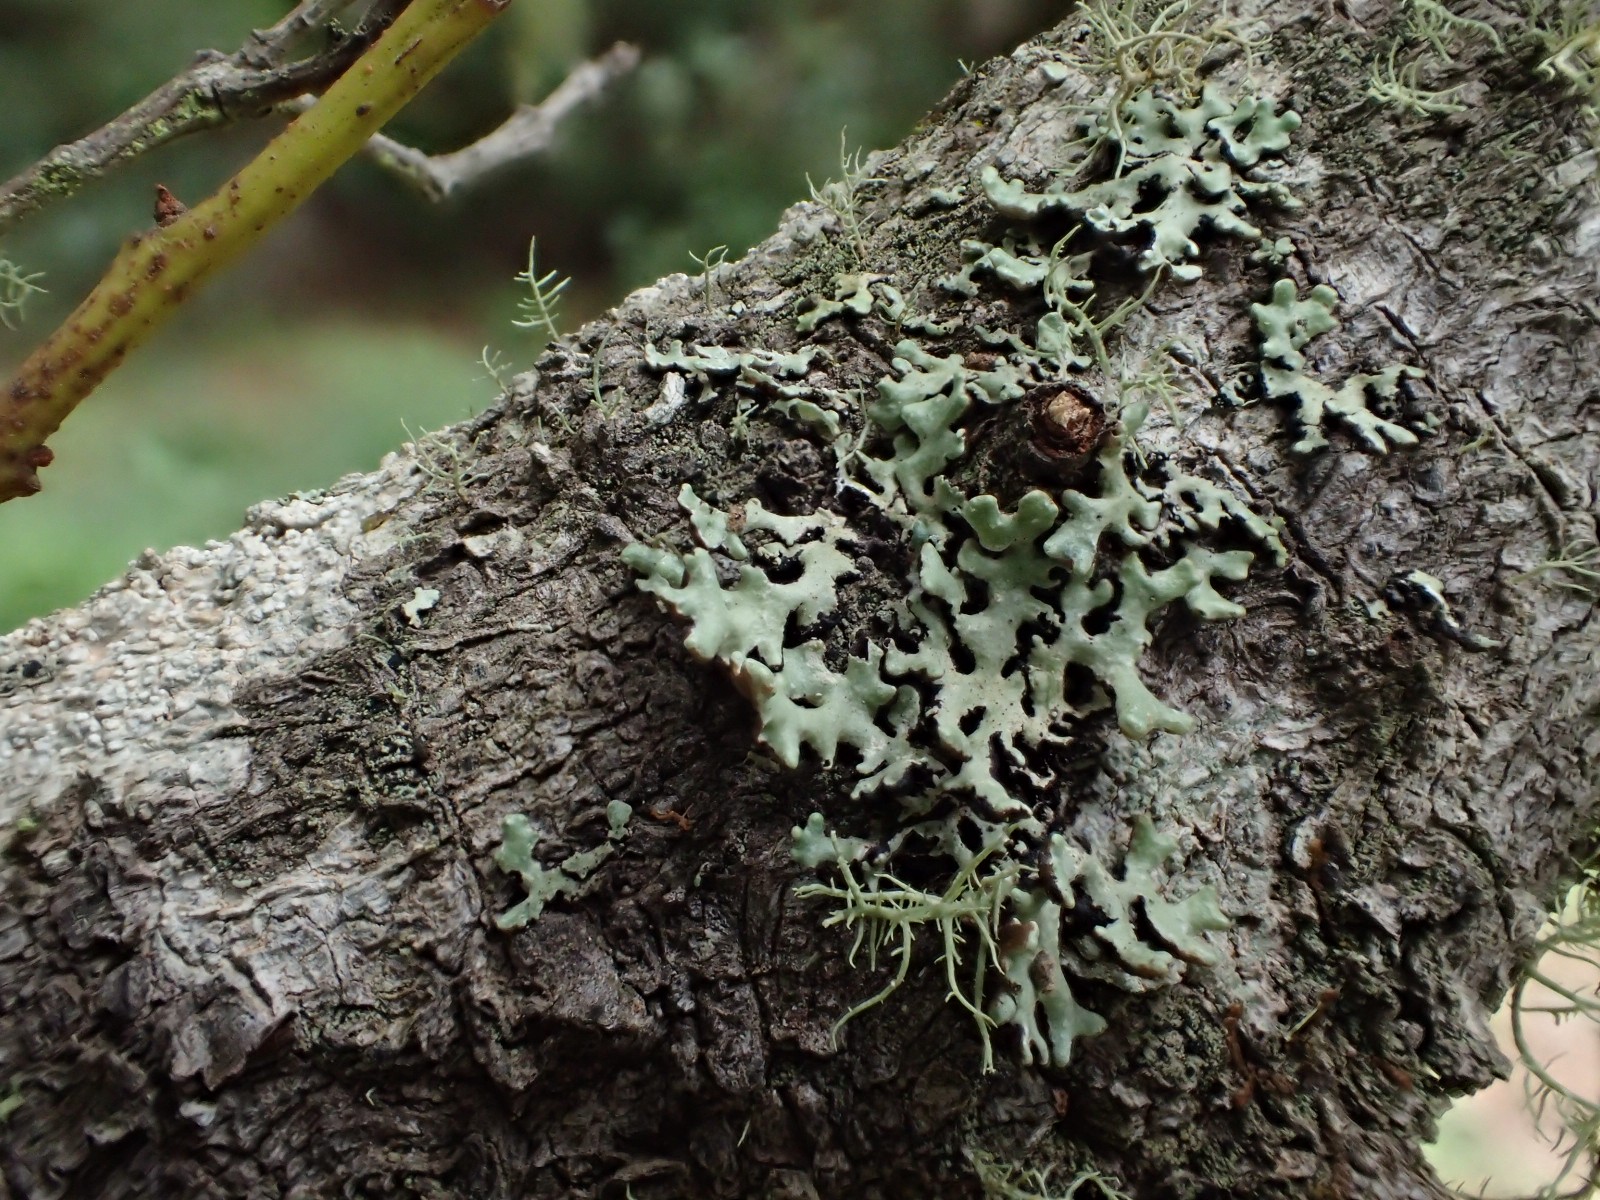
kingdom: Fungi
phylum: Ascomycota
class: Lecanoromycetes
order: Lecanorales
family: Parmeliaceae
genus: Hypogymnia
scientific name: Hypogymnia physodes
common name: almindelig kvistlav
